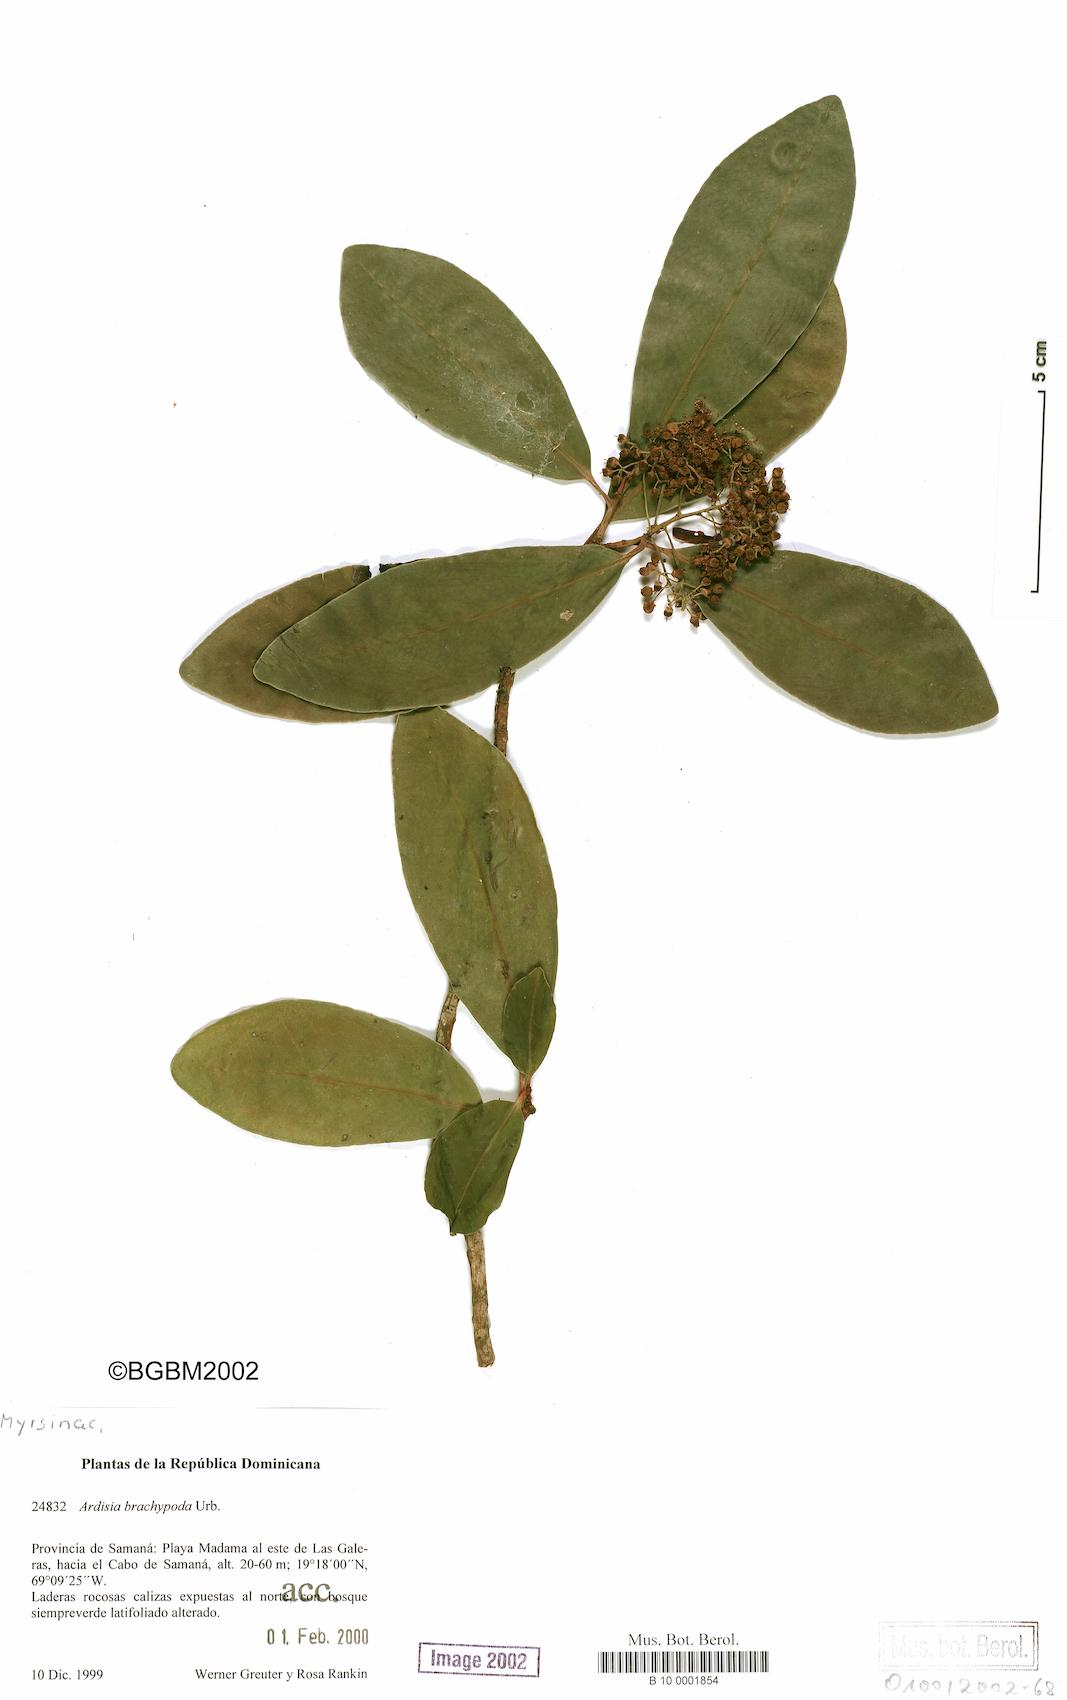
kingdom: Plantae
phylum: Tracheophyta
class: Magnoliopsida
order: Ericales
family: Primulaceae
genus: Ardisia
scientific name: Ardisia brachypoda
